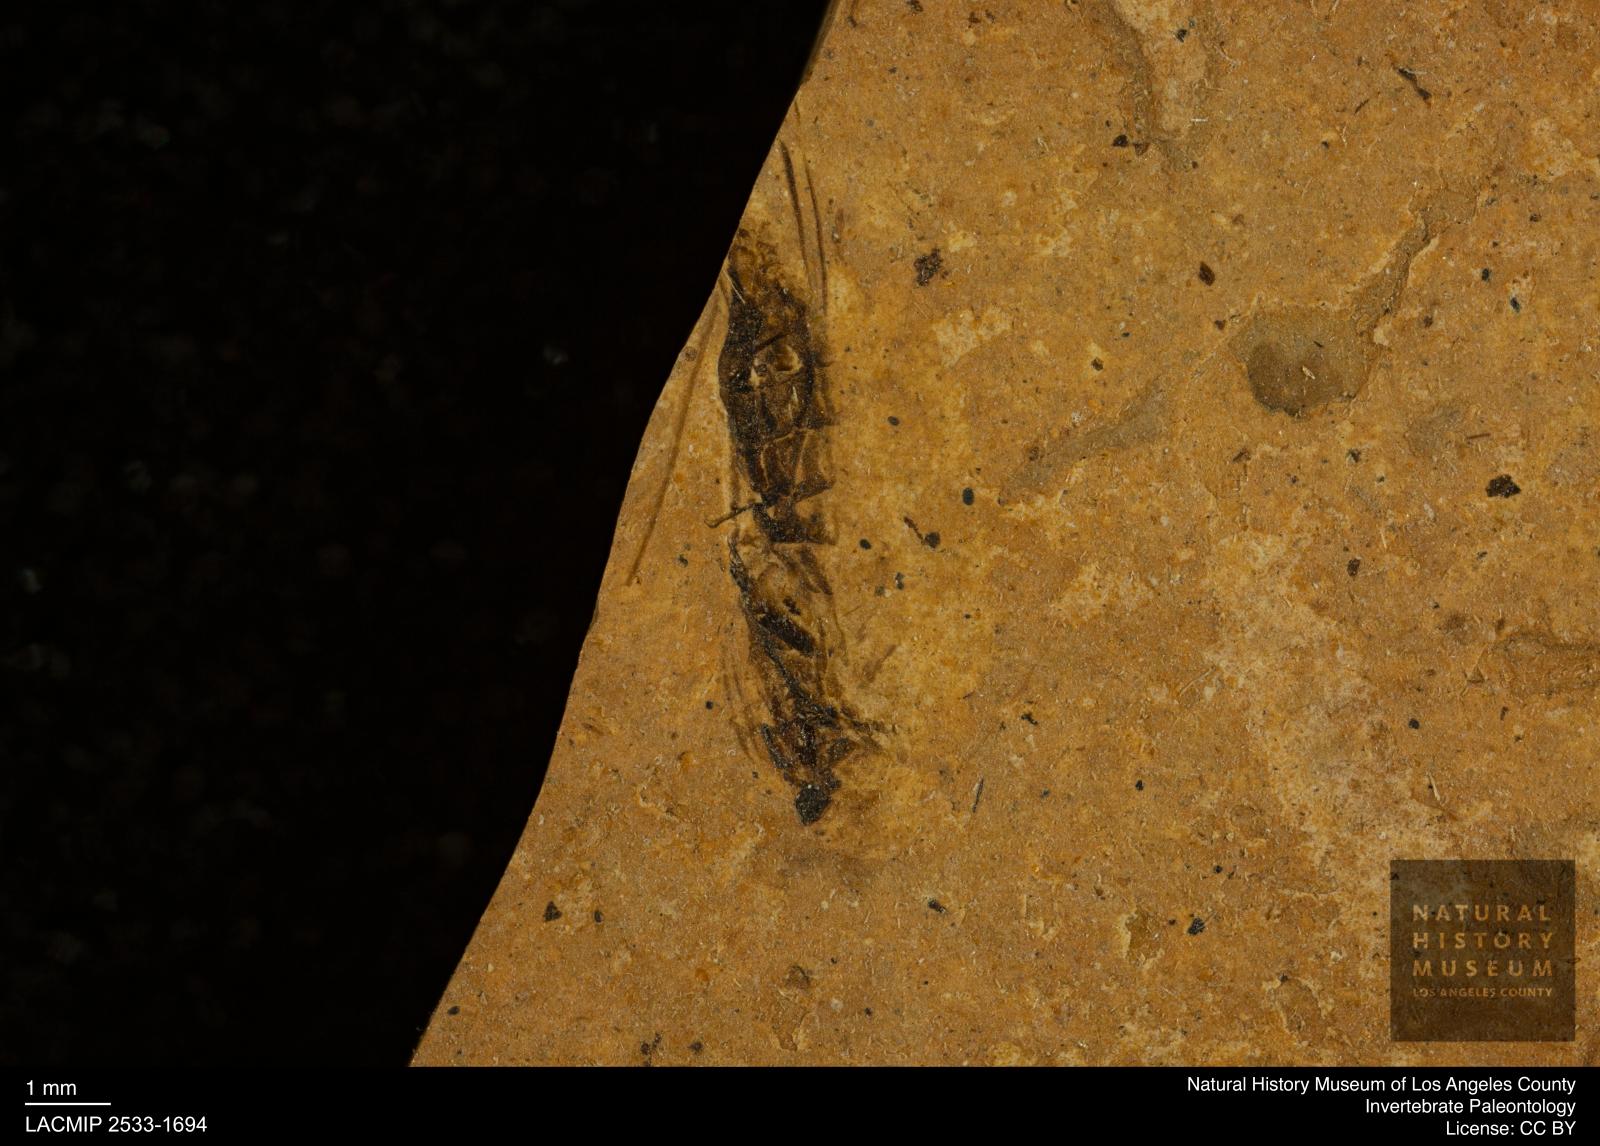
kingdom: Animalia
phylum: Arthropoda
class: Insecta
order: Hemiptera
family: Notonectidae
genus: Notonecta
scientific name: Notonecta
